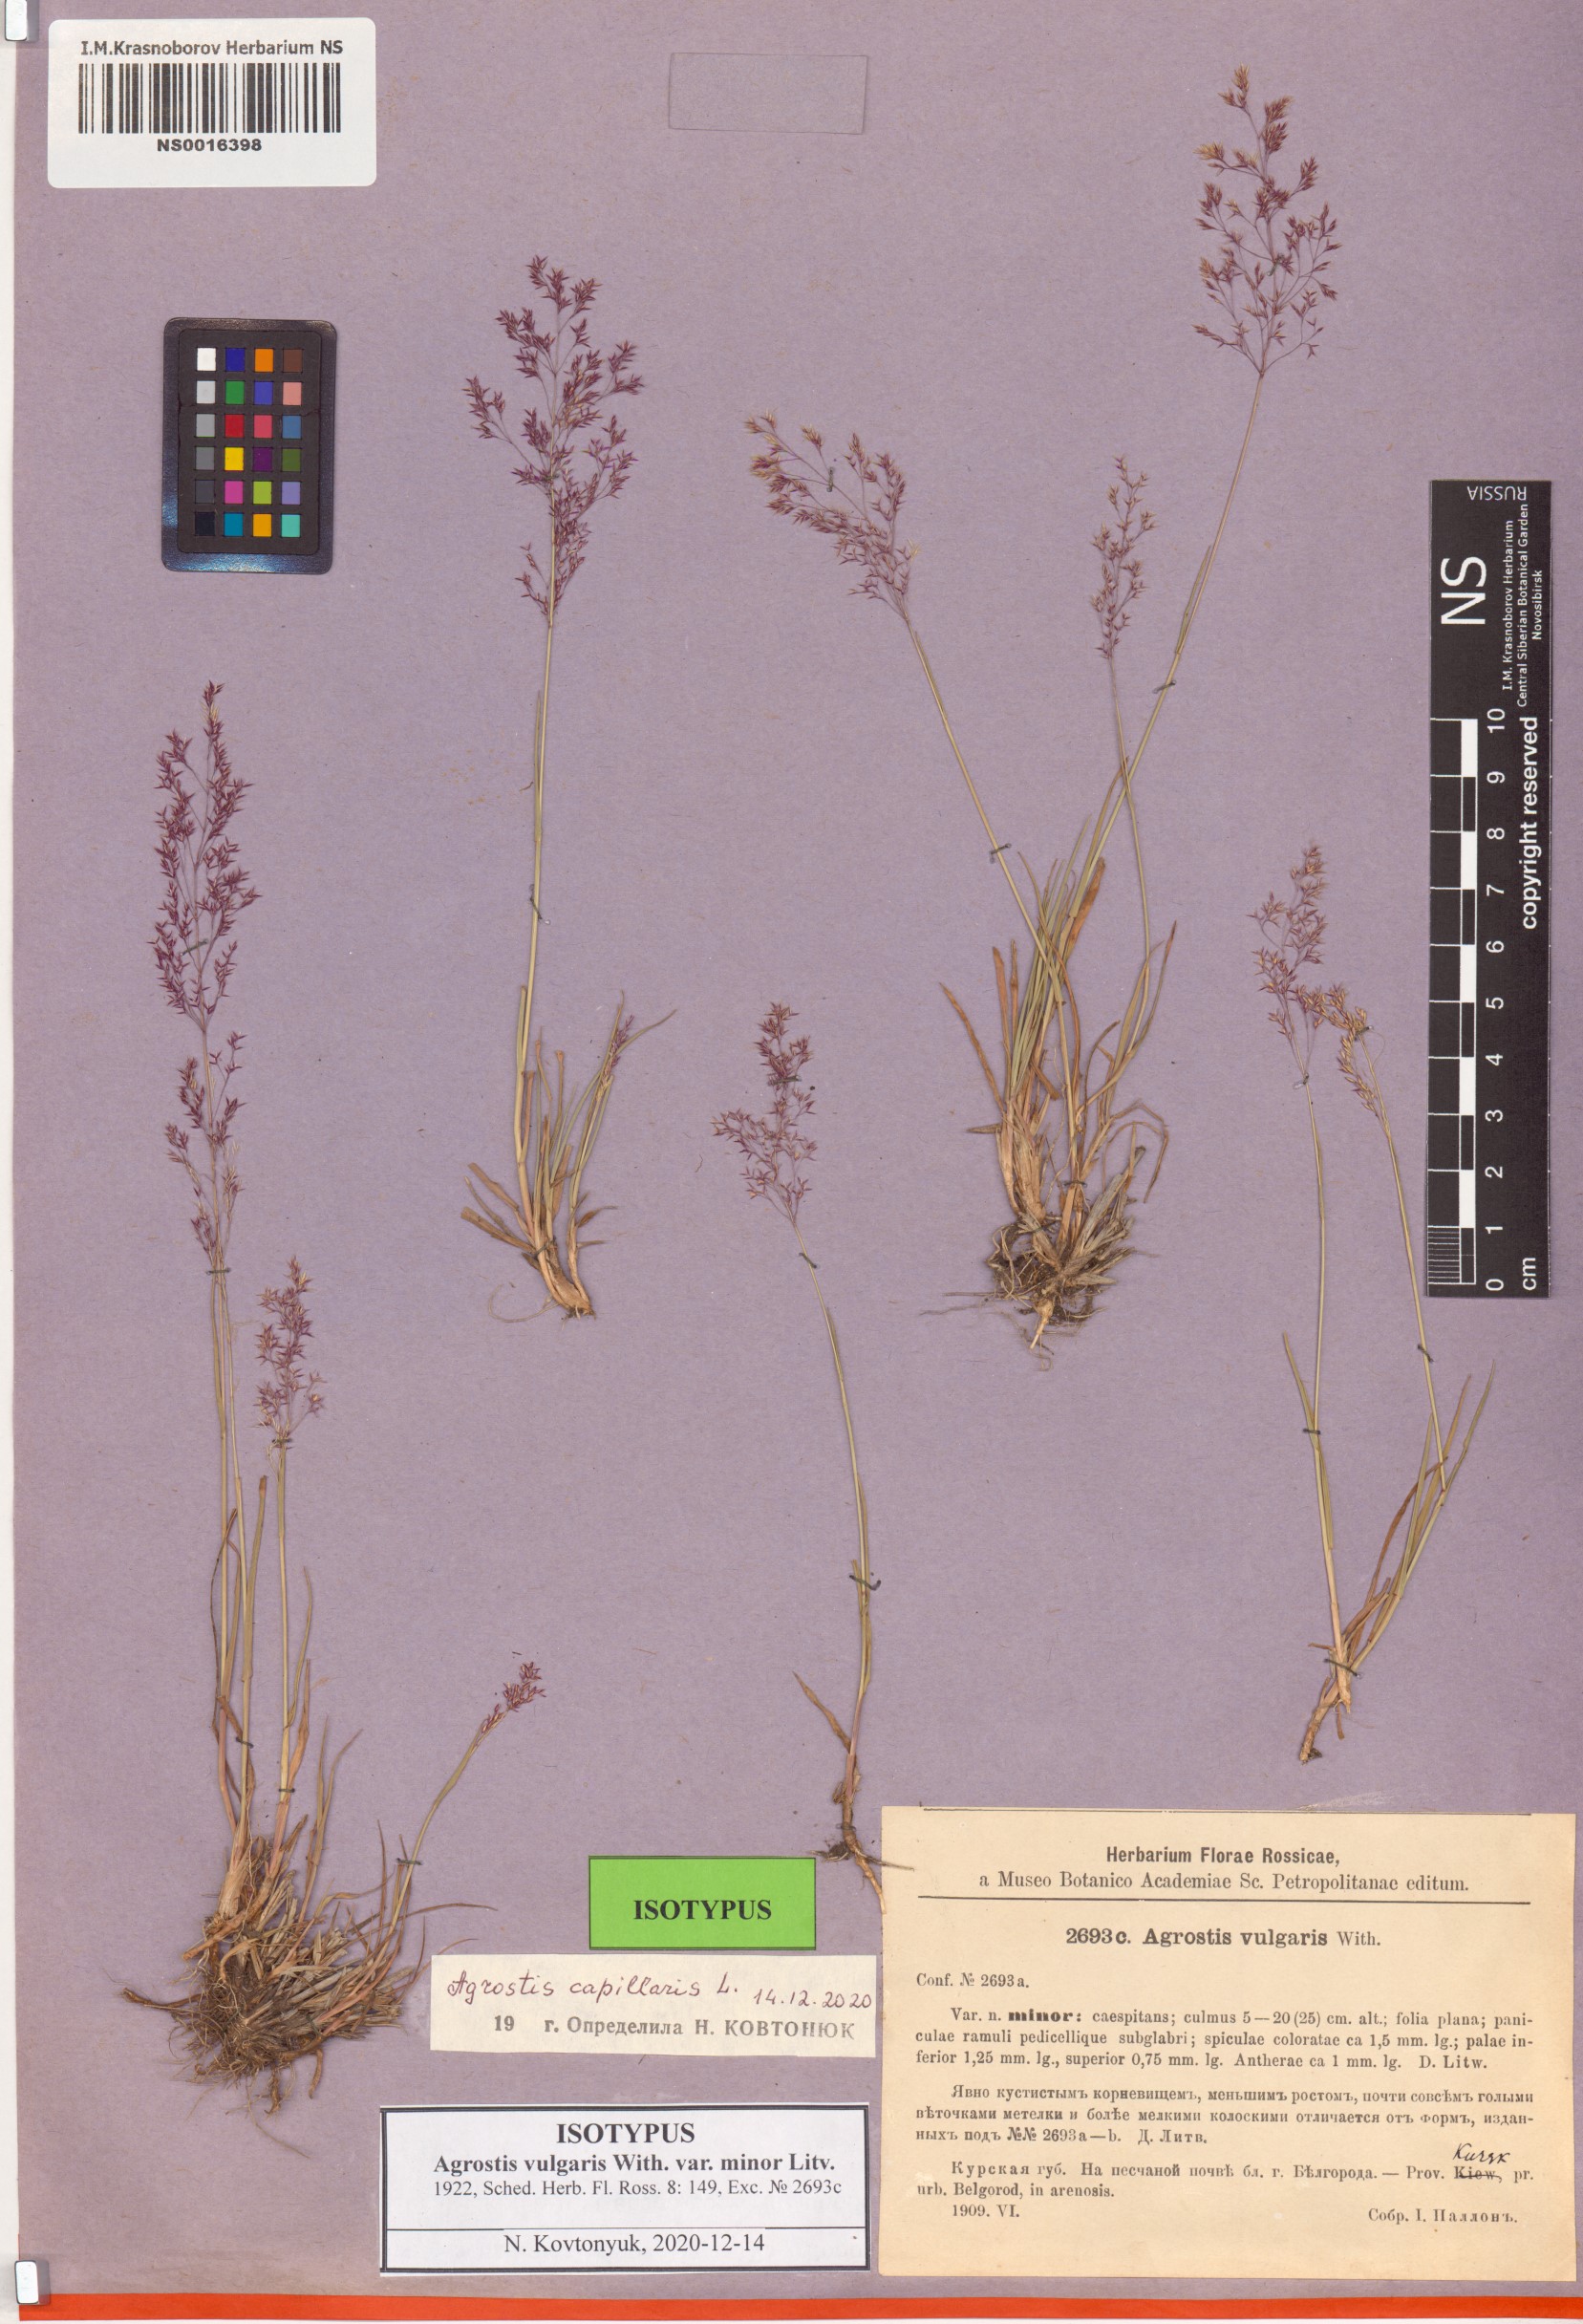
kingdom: Plantae
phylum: Tracheophyta
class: Liliopsida
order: Poales
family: Poaceae
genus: Agrostis
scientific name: Agrostis capillaris
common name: Colonial bentgrass
